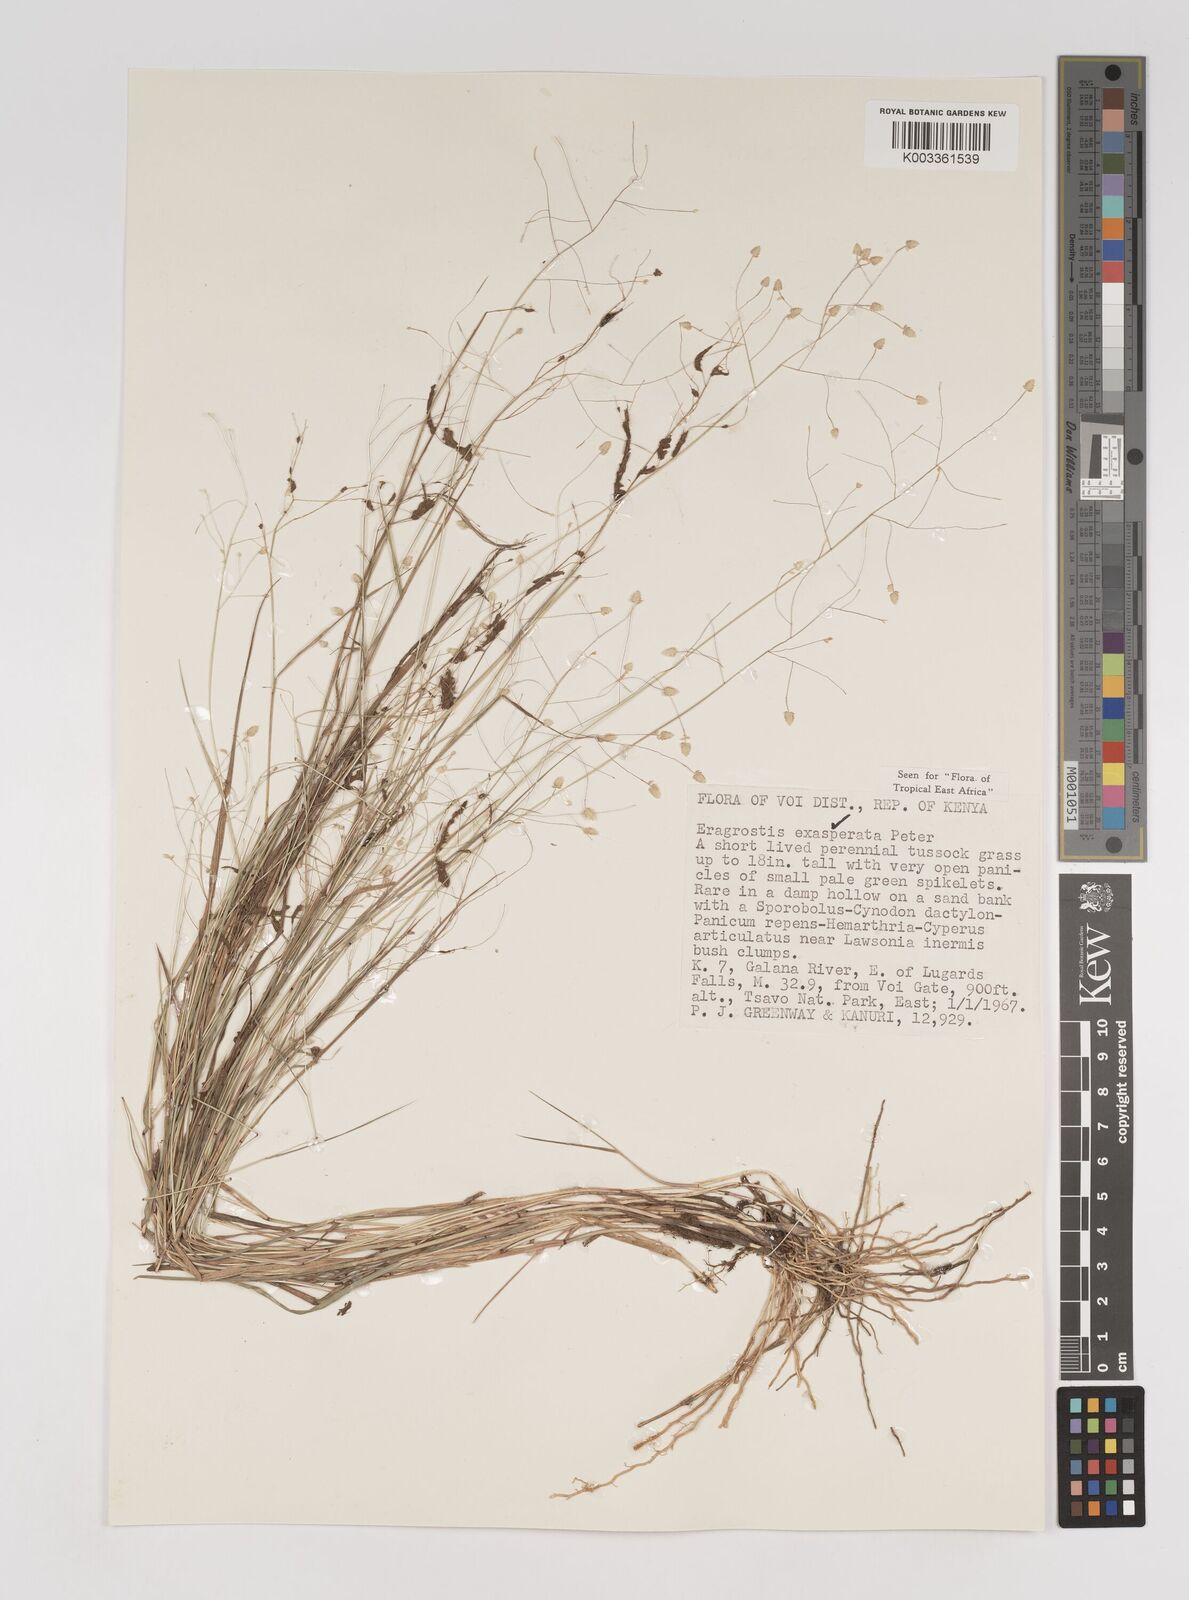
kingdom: Plantae
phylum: Tracheophyta
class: Liliopsida
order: Poales
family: Poaceae
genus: Eragrostis
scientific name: Eragrostis exasperata
